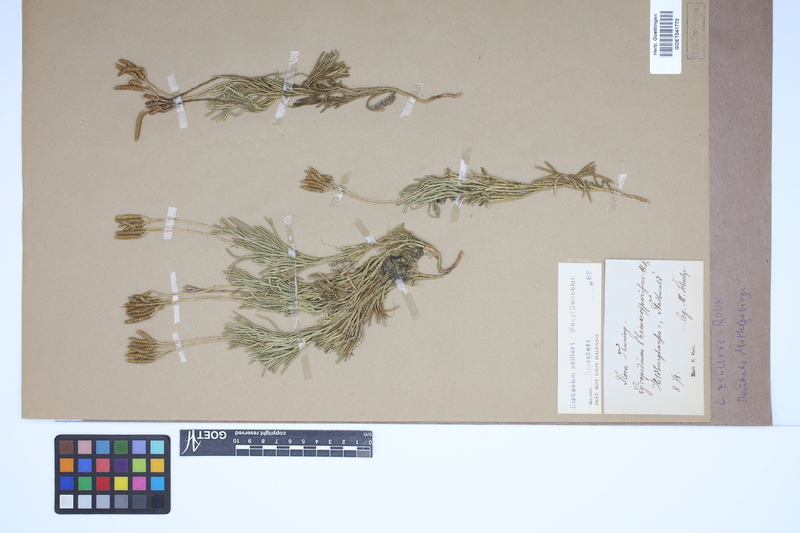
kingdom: Plantae
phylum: Tracheophyta
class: Lycopodiopsida
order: Lycopodiales
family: Lycopodiaceae
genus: Diphasiastrum
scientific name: Diphasiastrum zeilleri
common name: Zeiller's clubmoss
